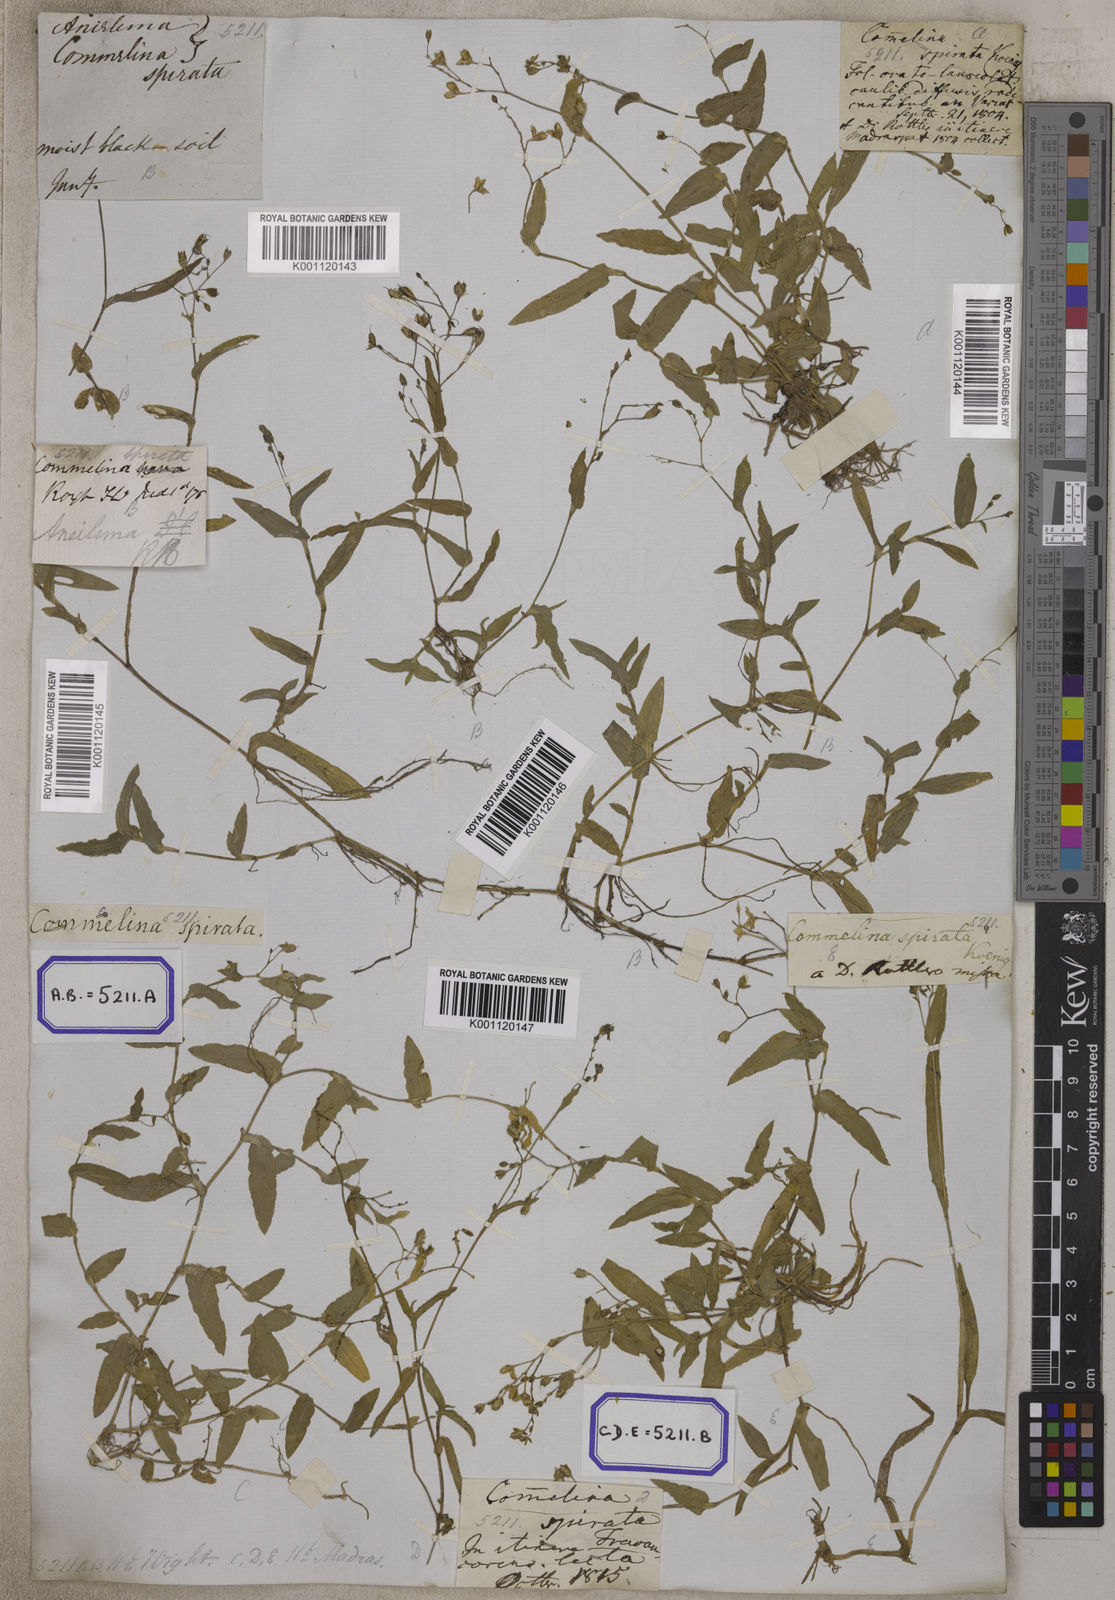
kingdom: Plantae
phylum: Tracheophyta
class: Liliopsida
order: Commelinales
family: Commelinaceae
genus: Aneilema
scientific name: Aneilema
